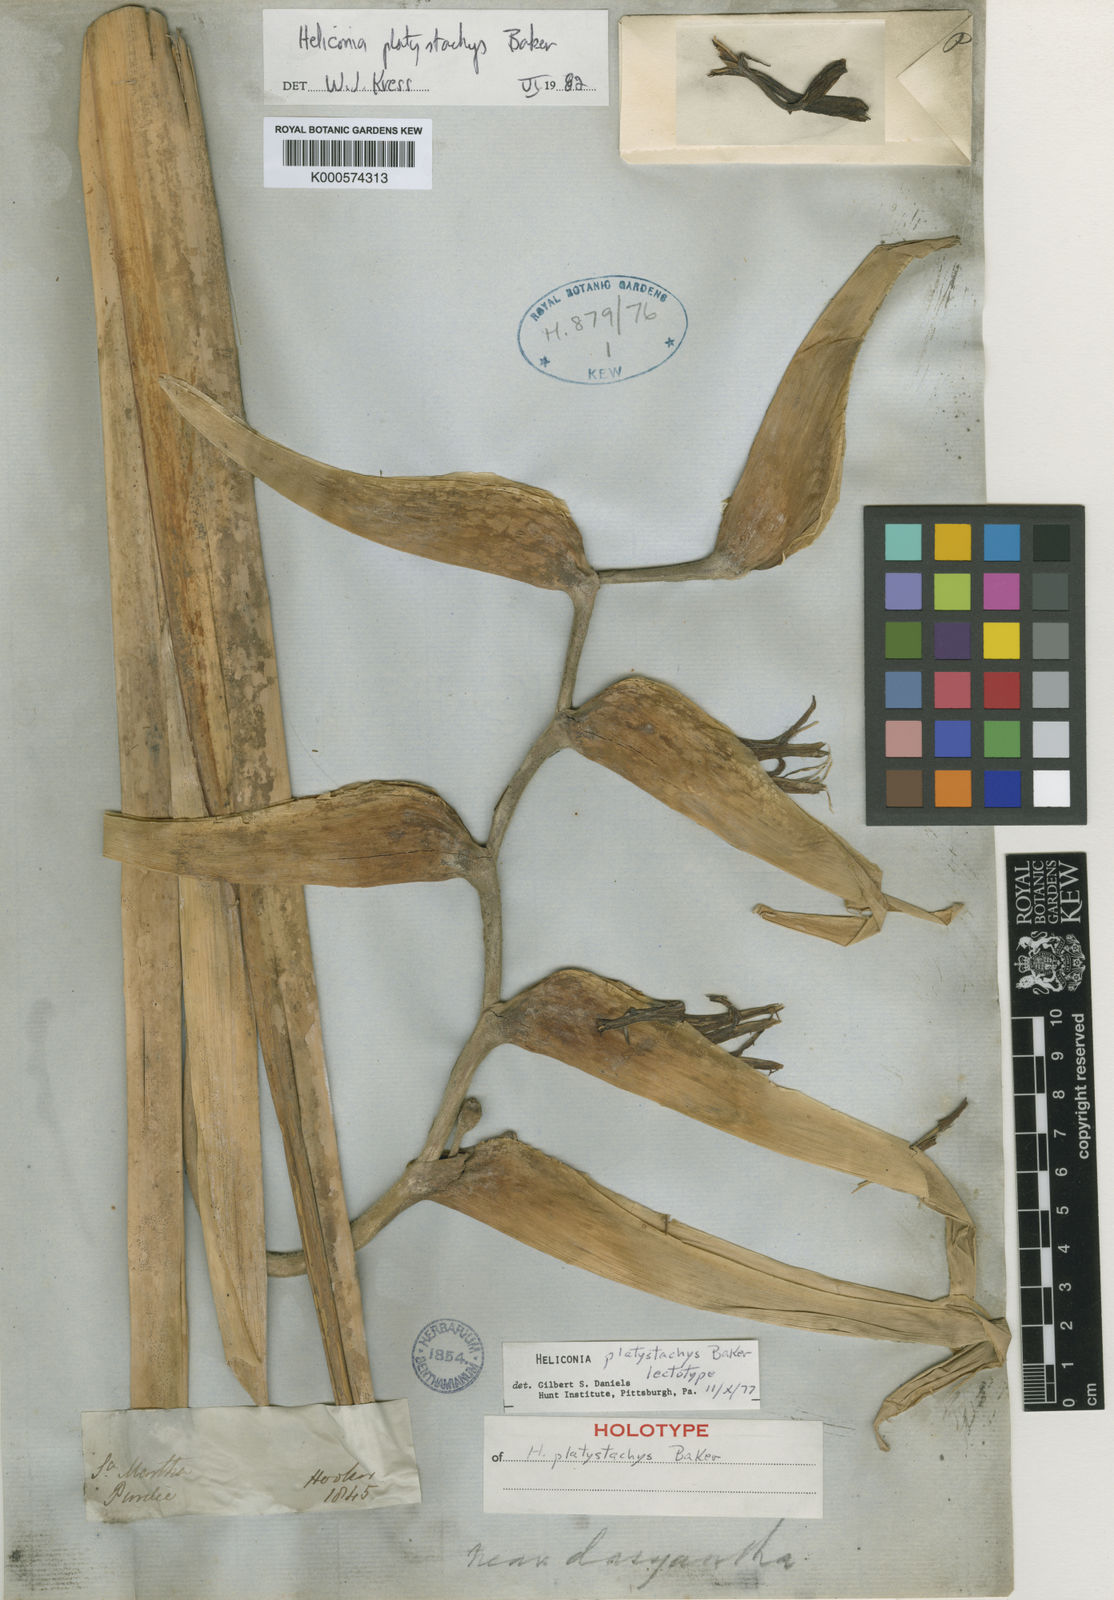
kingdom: Plantae
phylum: Tracheophyta
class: Liliopsida
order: Zingiberales
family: Heliconiaceae
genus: Heliconia
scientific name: Heliconia platystachys
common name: False bird of paradise
